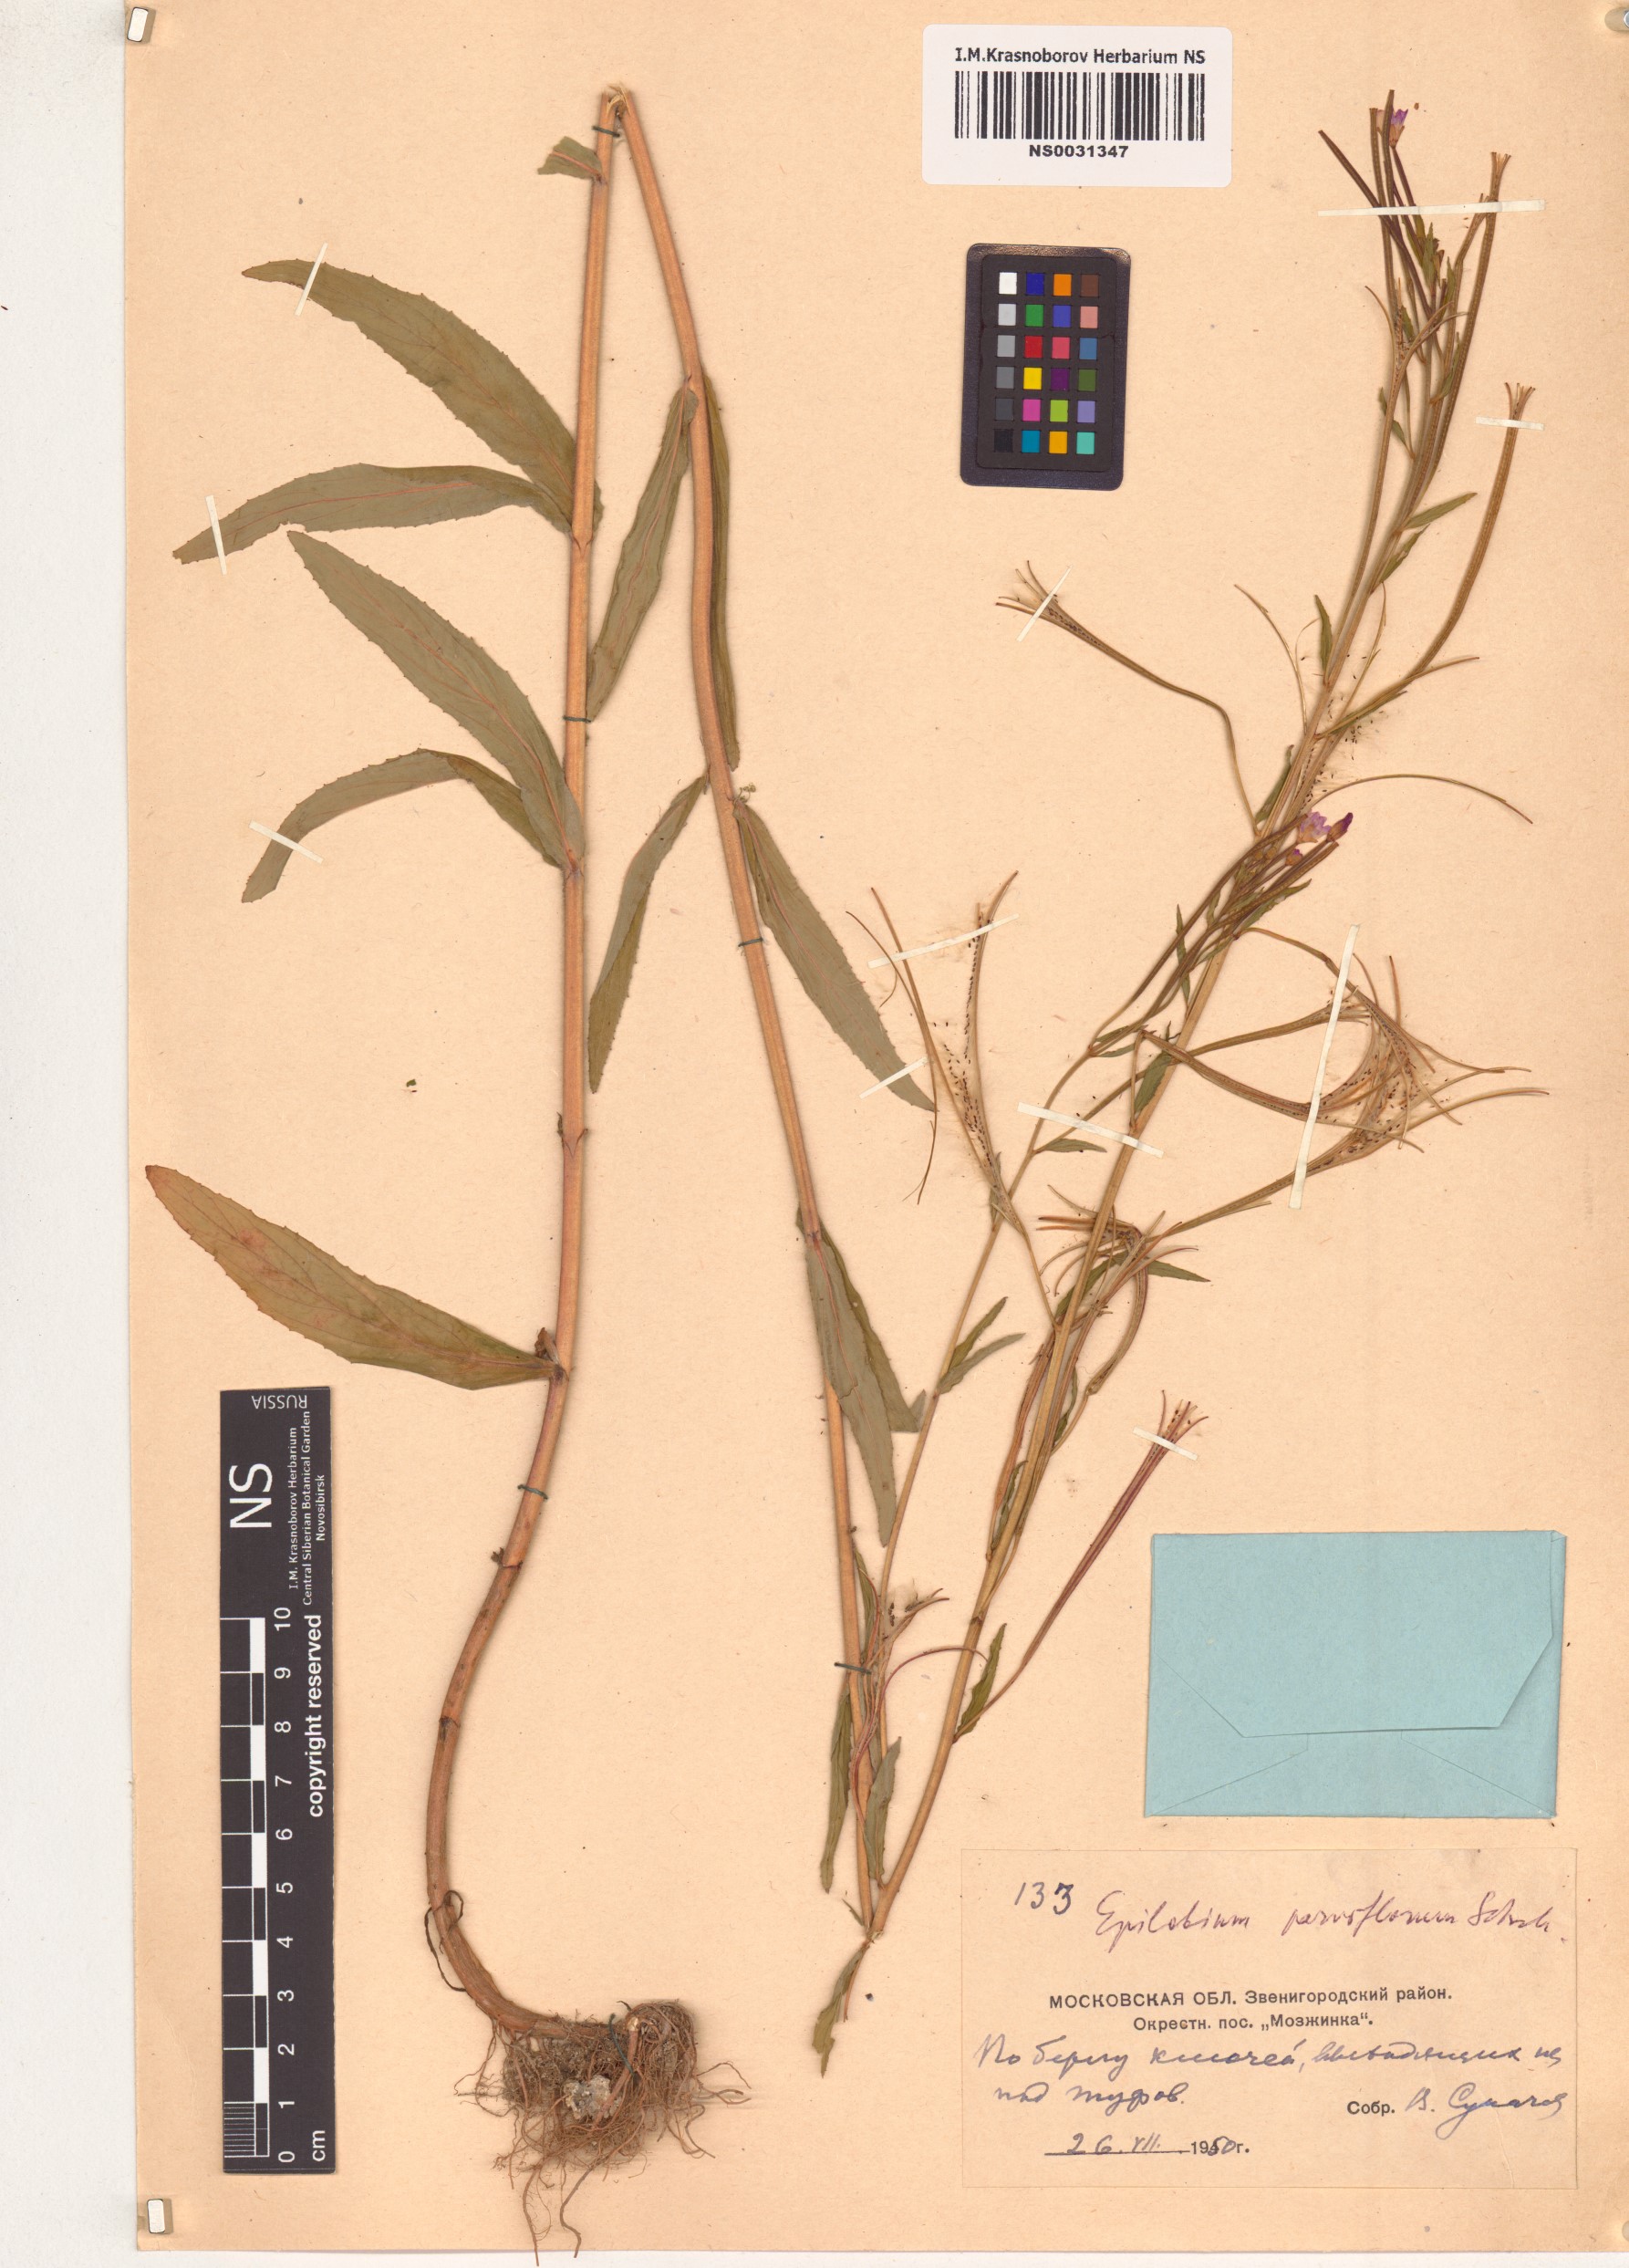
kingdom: Plantae
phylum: Tracheophyta
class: Magnoliopsida
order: Myrtales
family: Onagraceae
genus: Epilobium
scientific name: Epilobium parviflorum
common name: Hoary willowherb
